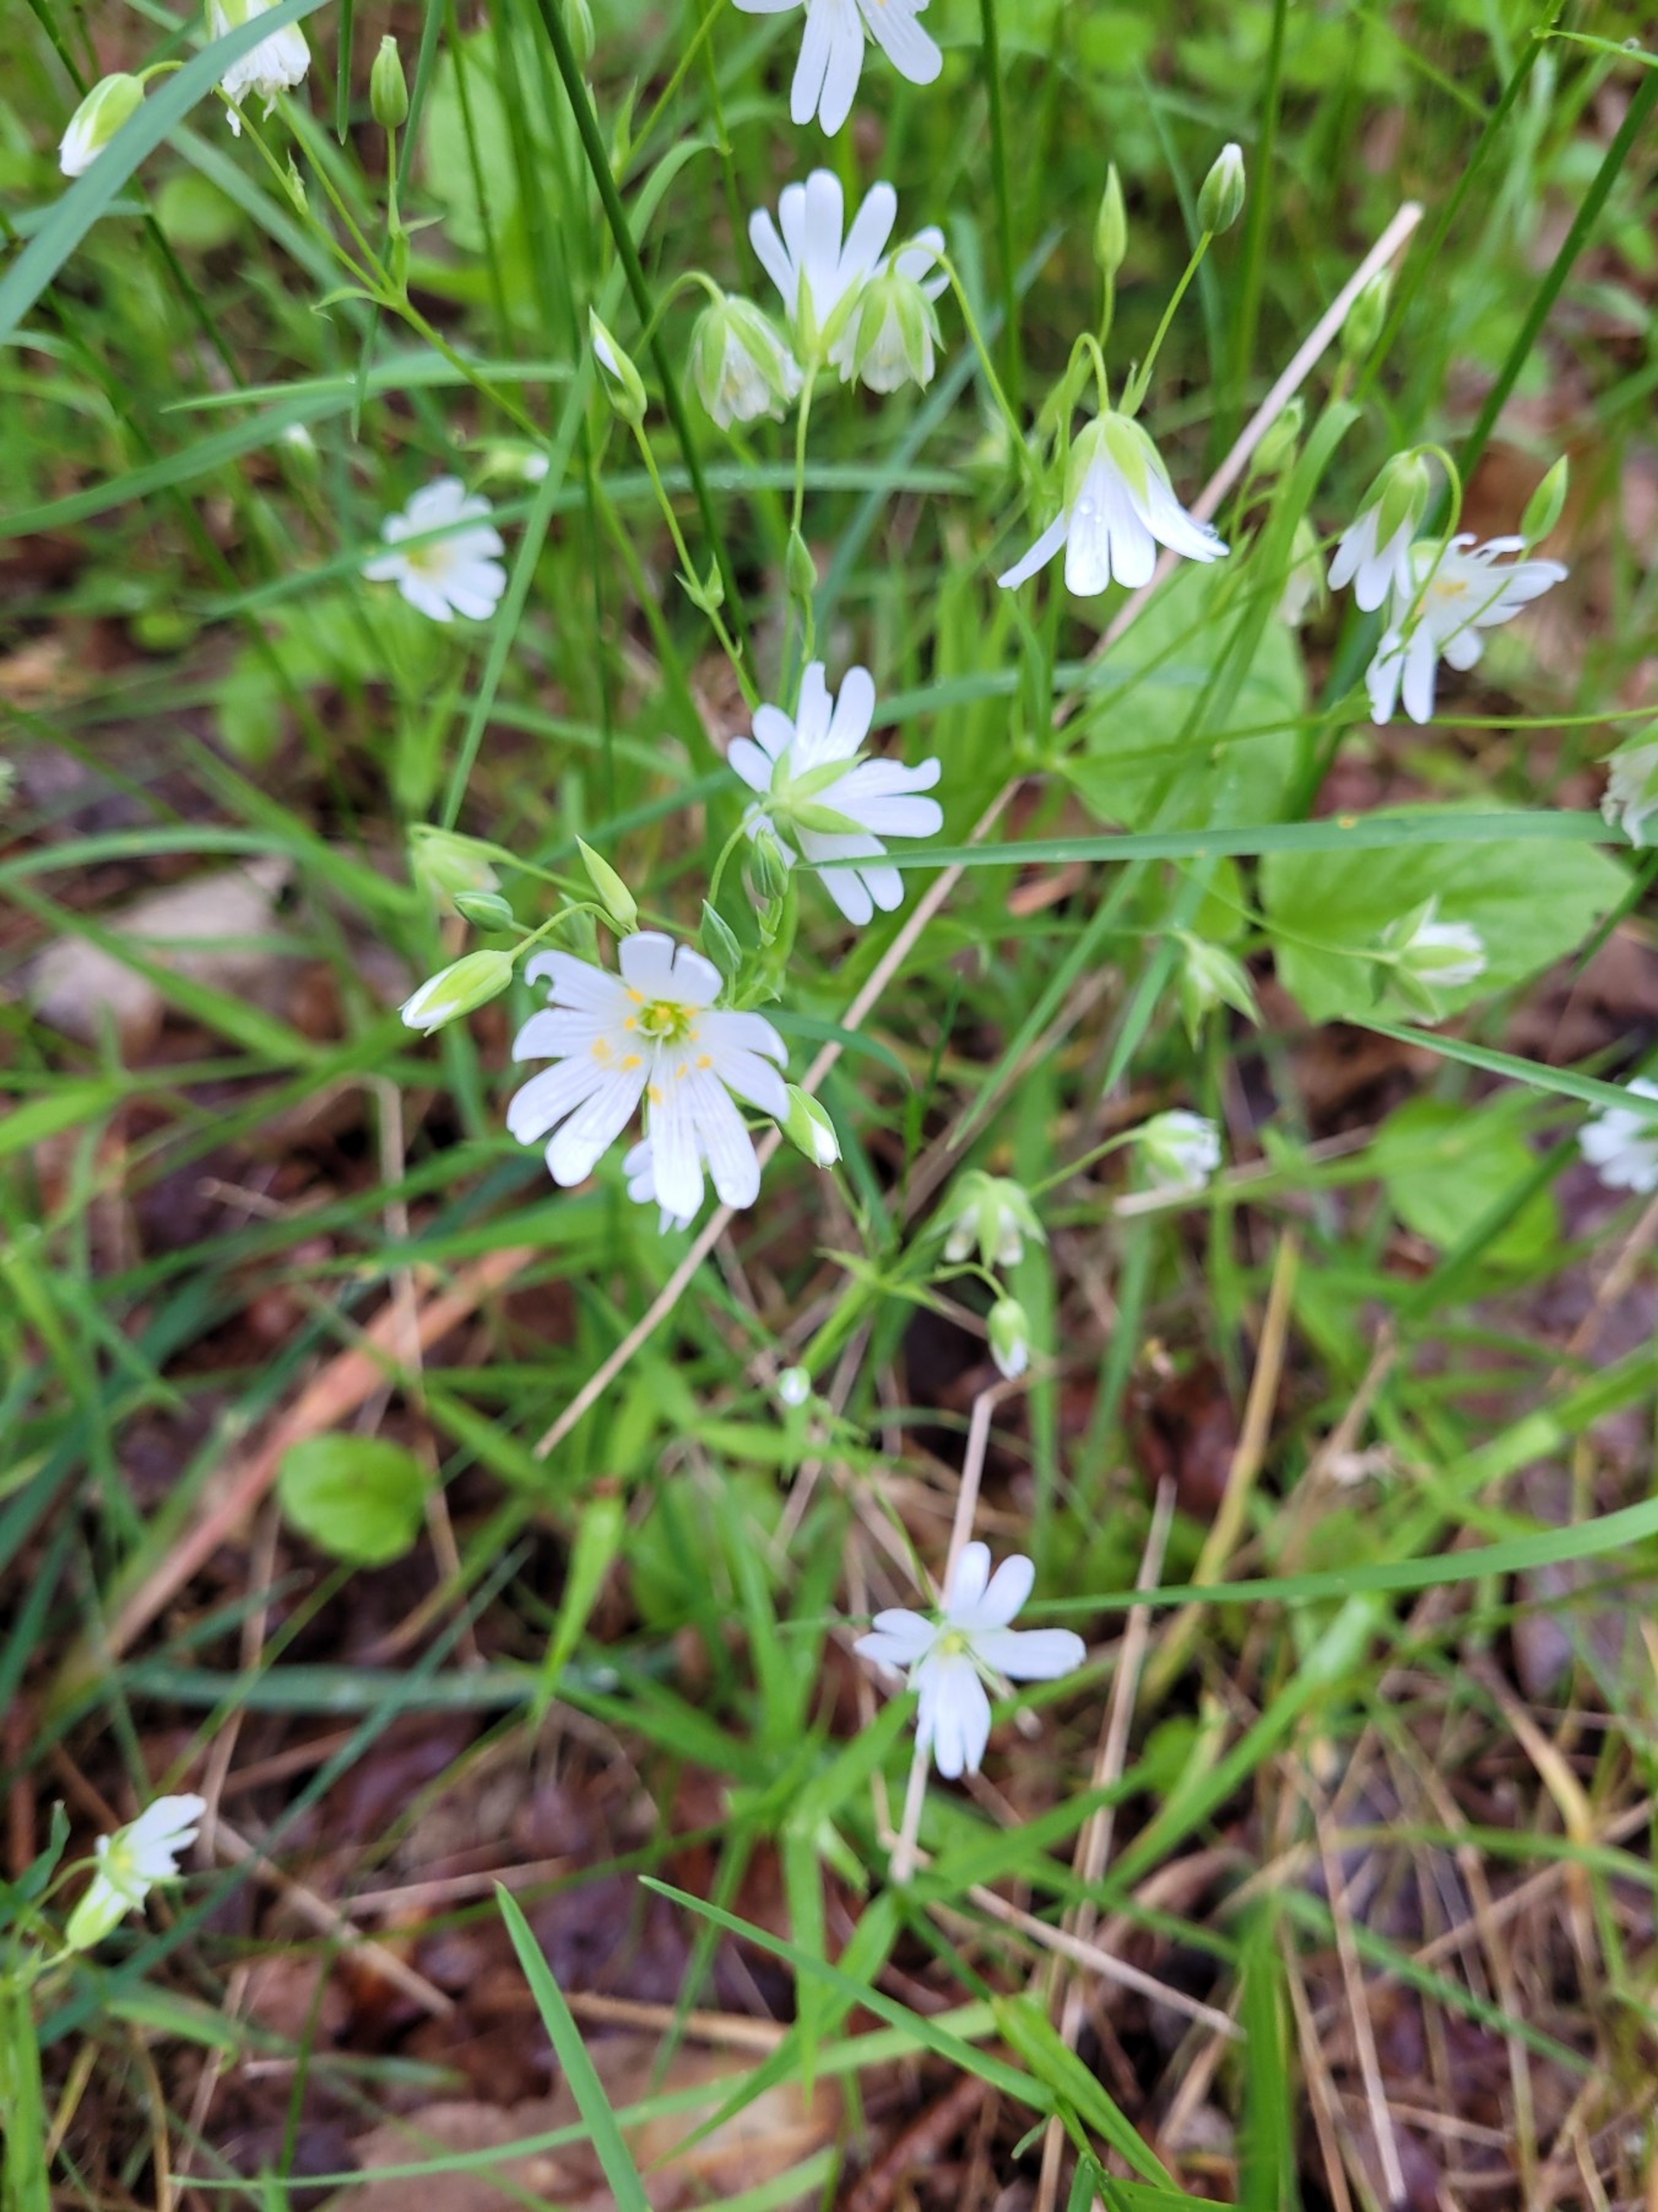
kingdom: Plantae
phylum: Tracheophyta
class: Magnoliopsida
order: Caryophyllales
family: Caryophyllaceae
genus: Rabelera
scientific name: Rabelera holostea
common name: Stor fladstjerne
